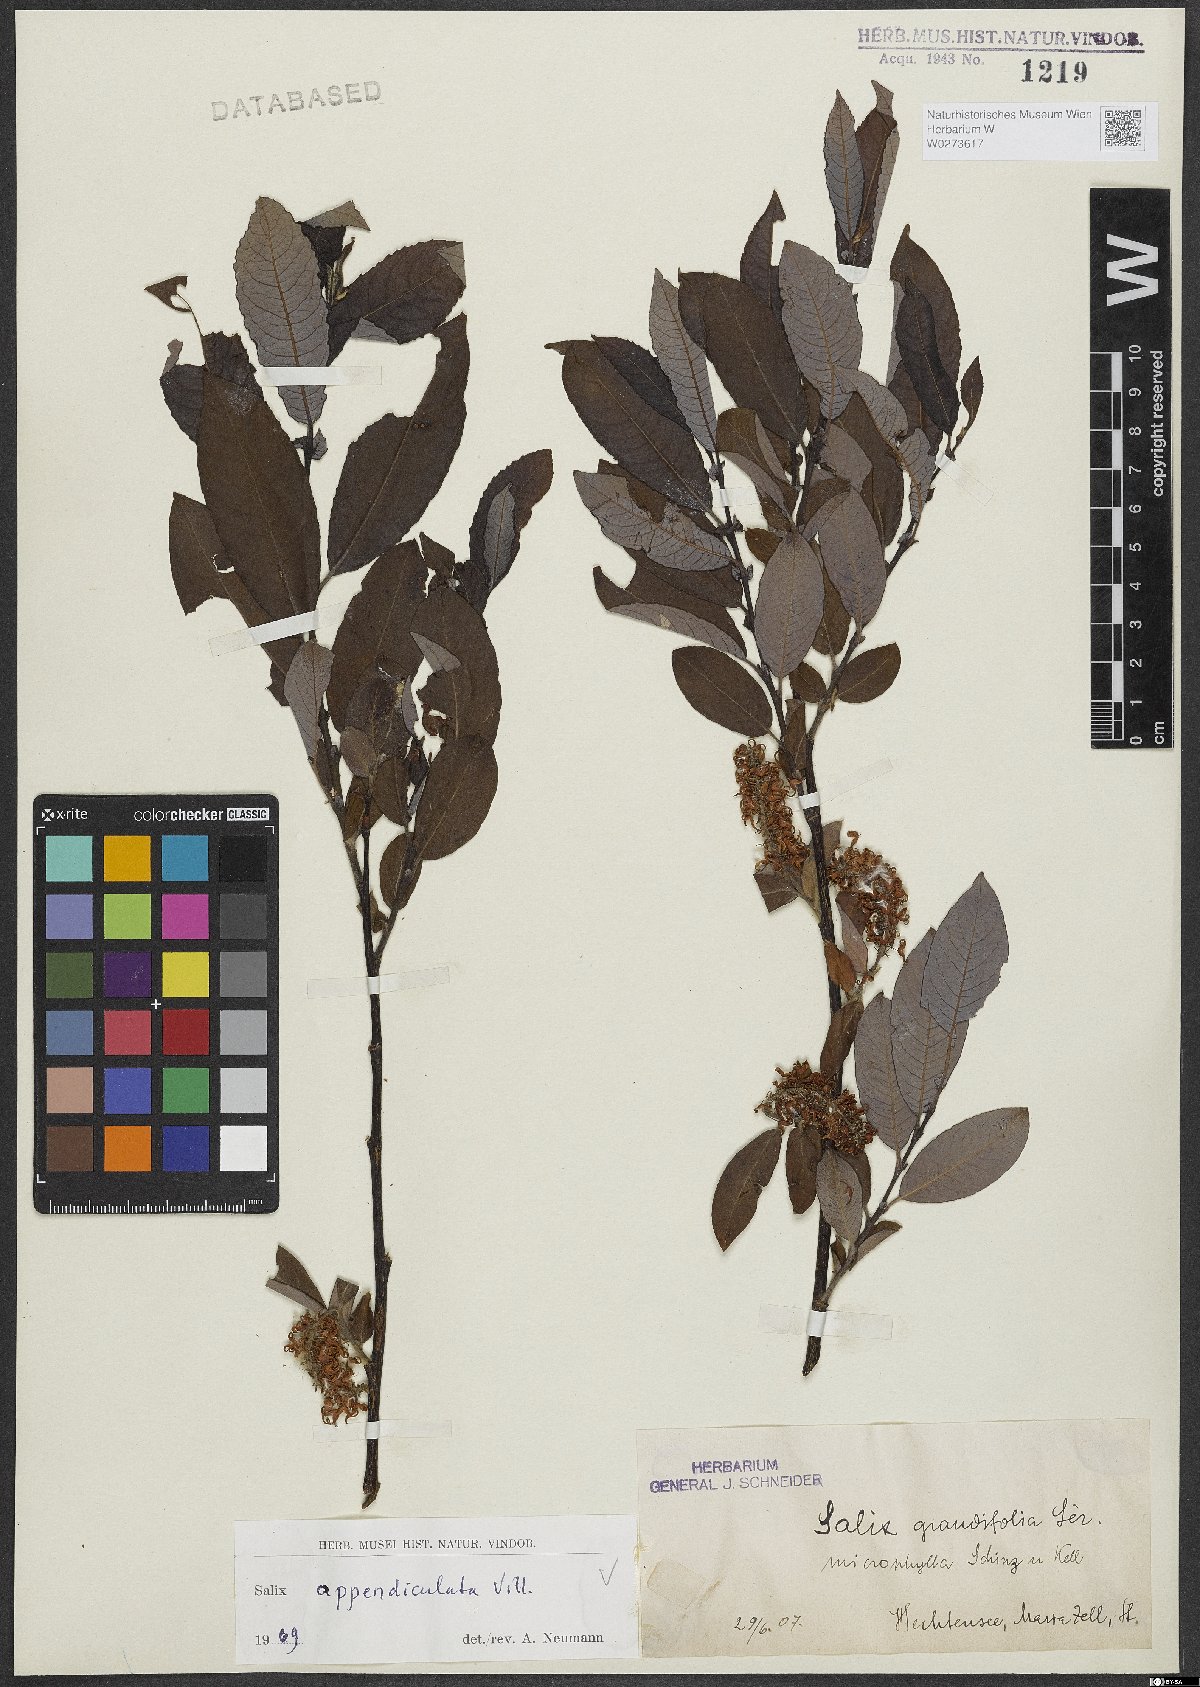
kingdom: Plantae
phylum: Tracheophyta
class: Magnoliopsida
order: Malpighiales
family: Salicaceae
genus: Salix
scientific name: Salix appendiculata
